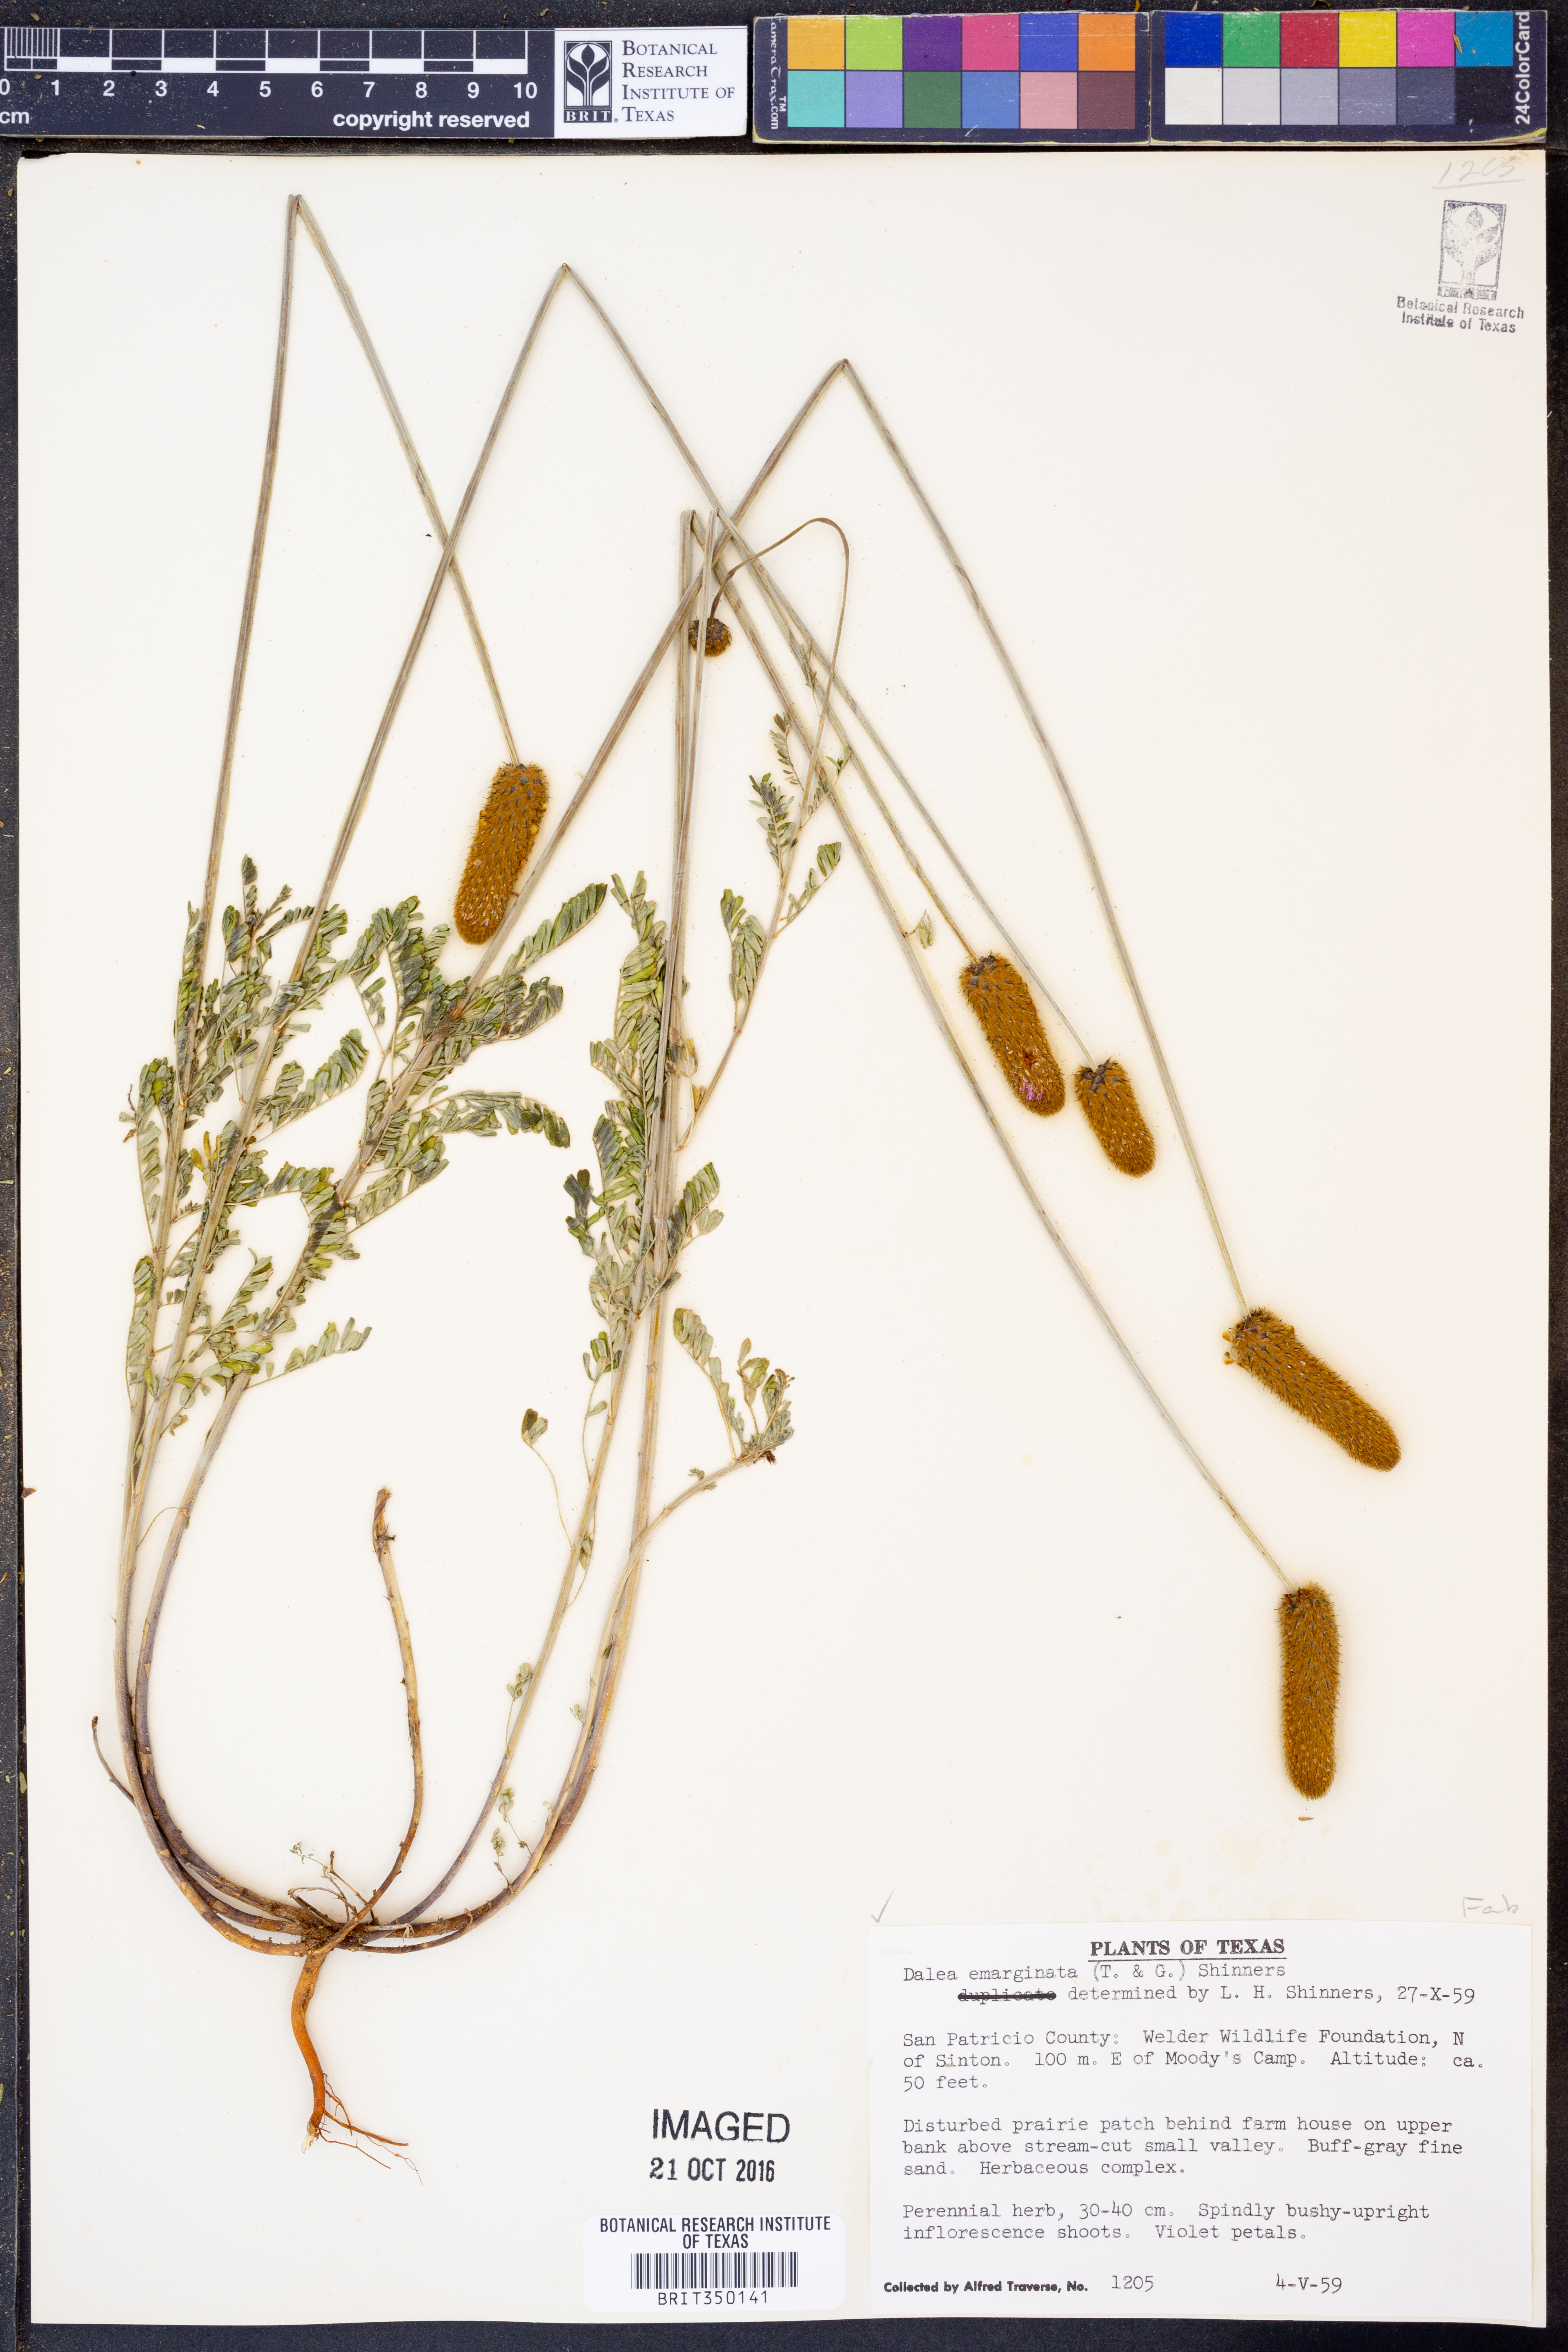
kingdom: Plantae
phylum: Tracheophyta
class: Magnoliopsida
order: Fabales
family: Fabaceae
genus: Dalea
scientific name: Dalea emarginata
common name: Wedgeleaf prairie clover
